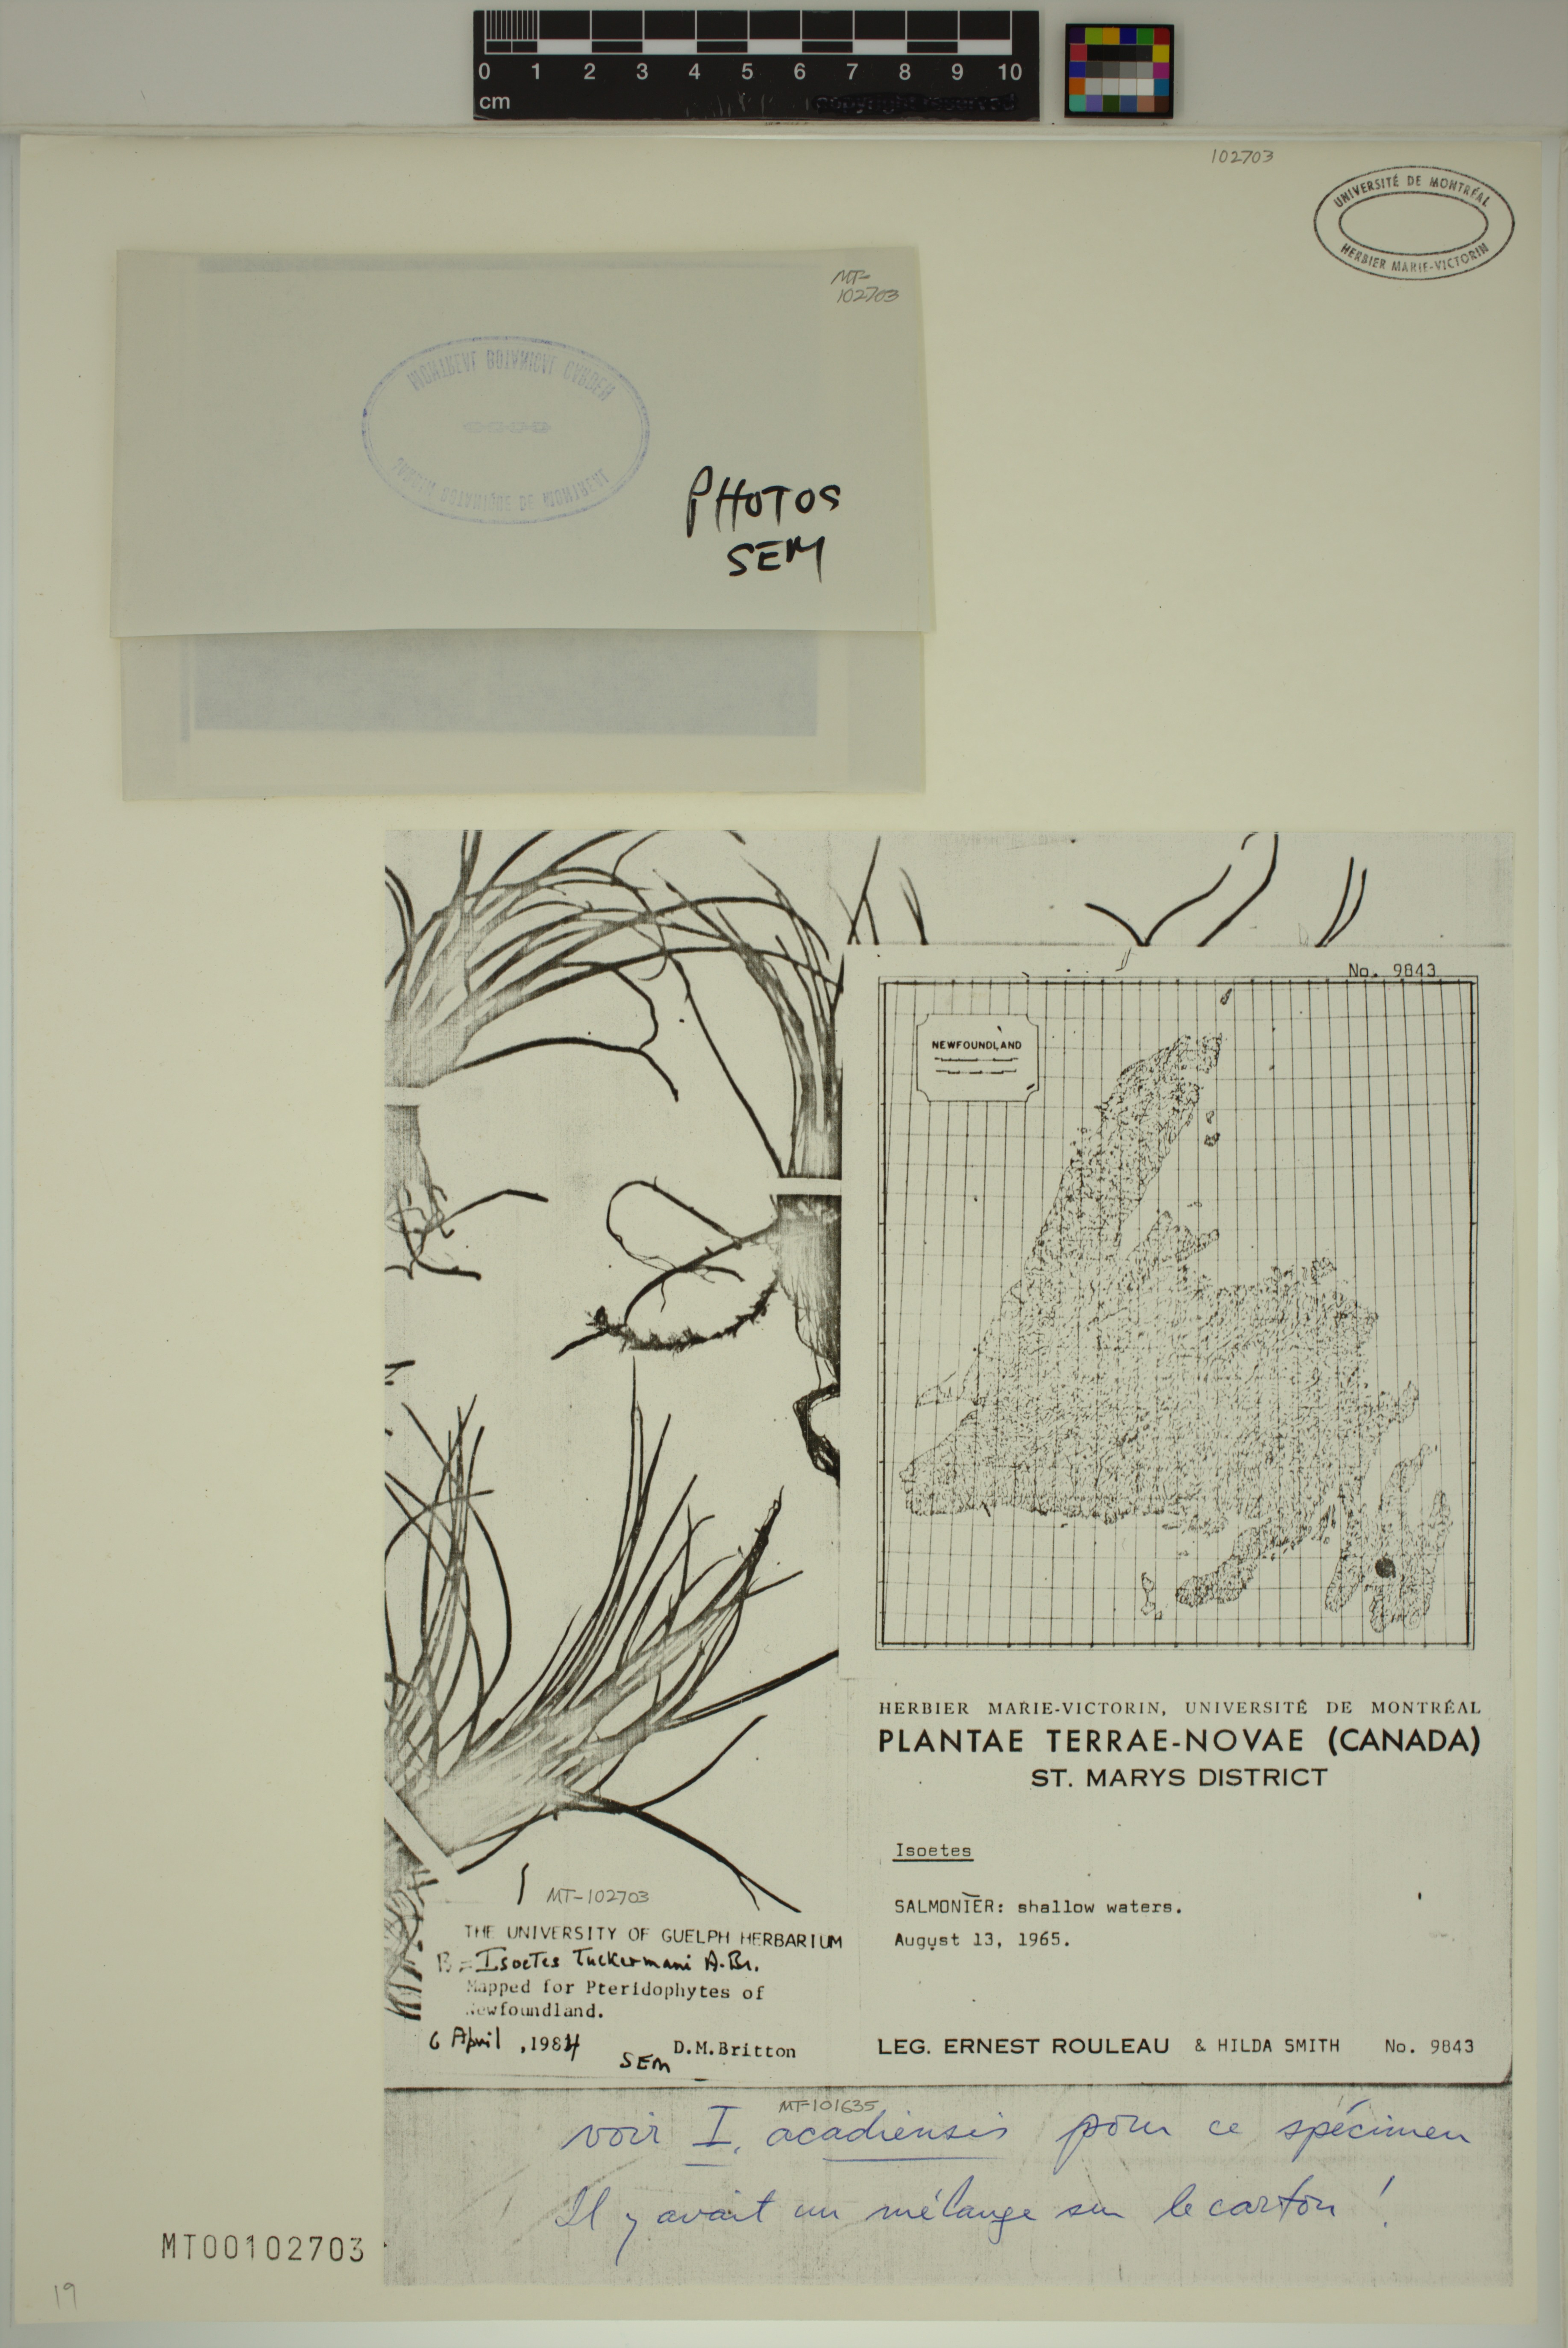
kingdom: Plantae
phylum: Tracheophyta
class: Lycopodiopsida
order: Isoetales
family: Isoetaceae
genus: Isoetes
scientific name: Isoetes tuckermanii
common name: Tuckerman's quillwort
